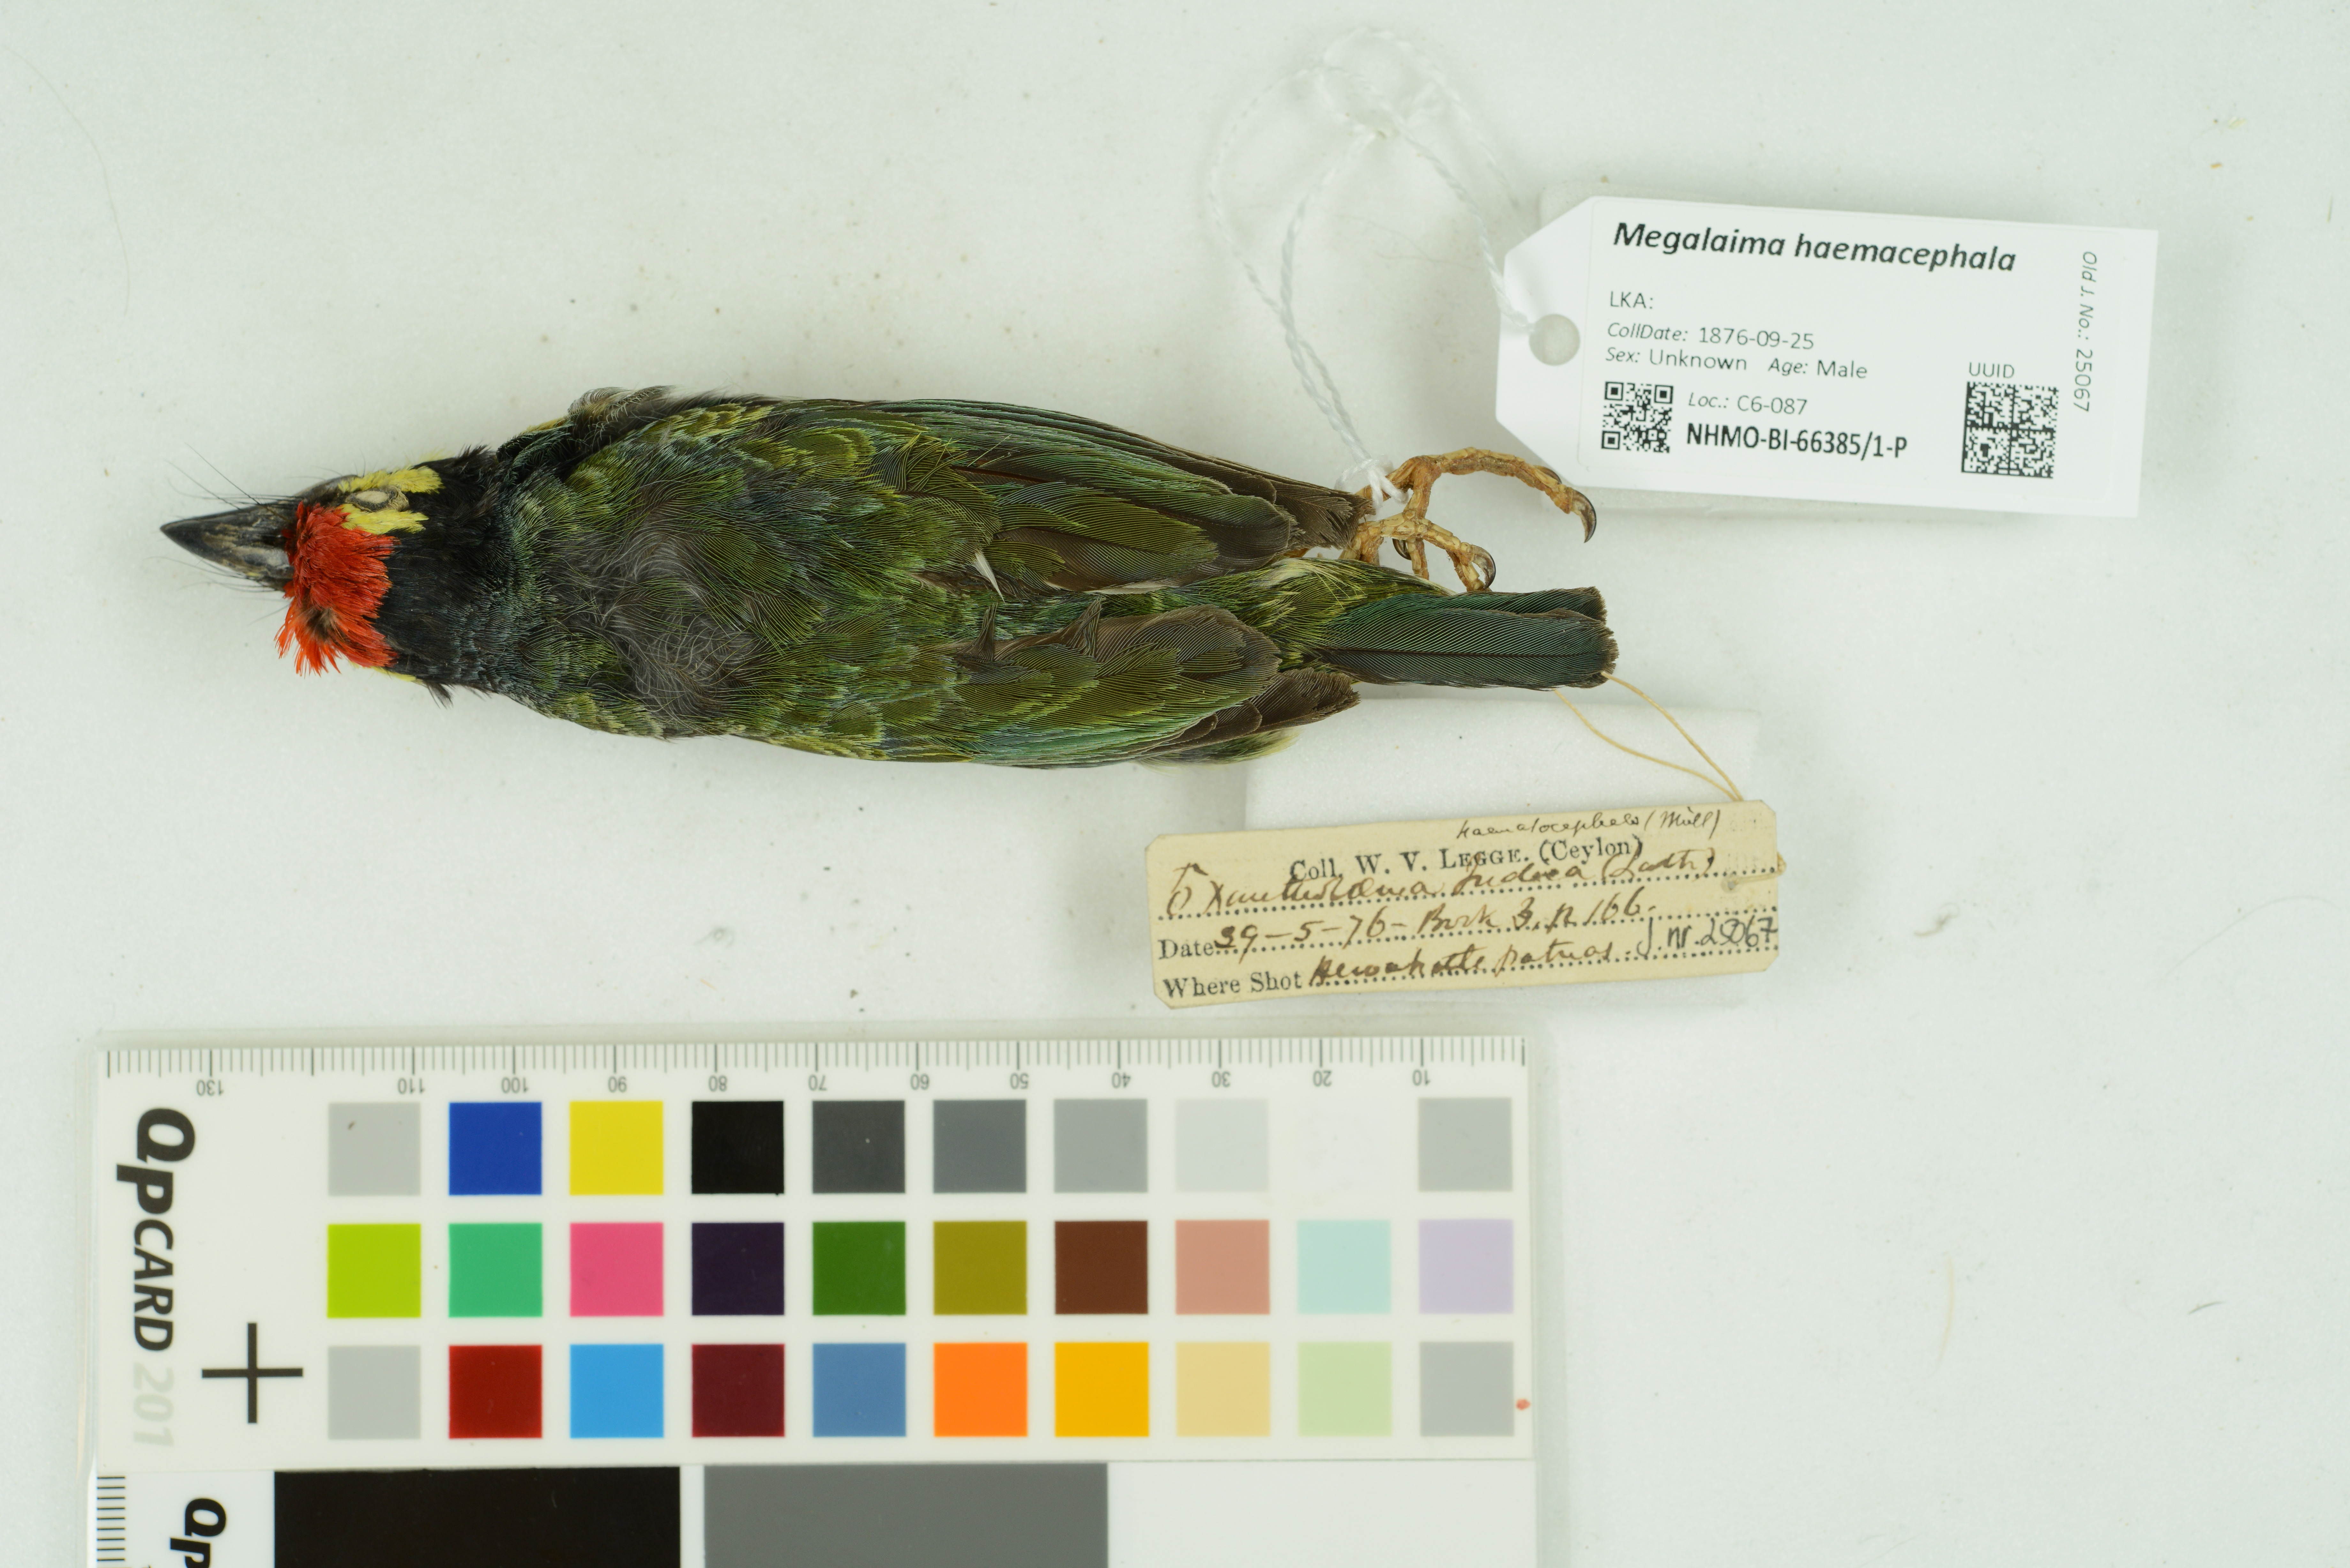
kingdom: Animalia
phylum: Chordata
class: Aves
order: Piciformes
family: Megalaimidae
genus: Psilopogon
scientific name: Psilopogon haemacephalus
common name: Coppersmith barbet
